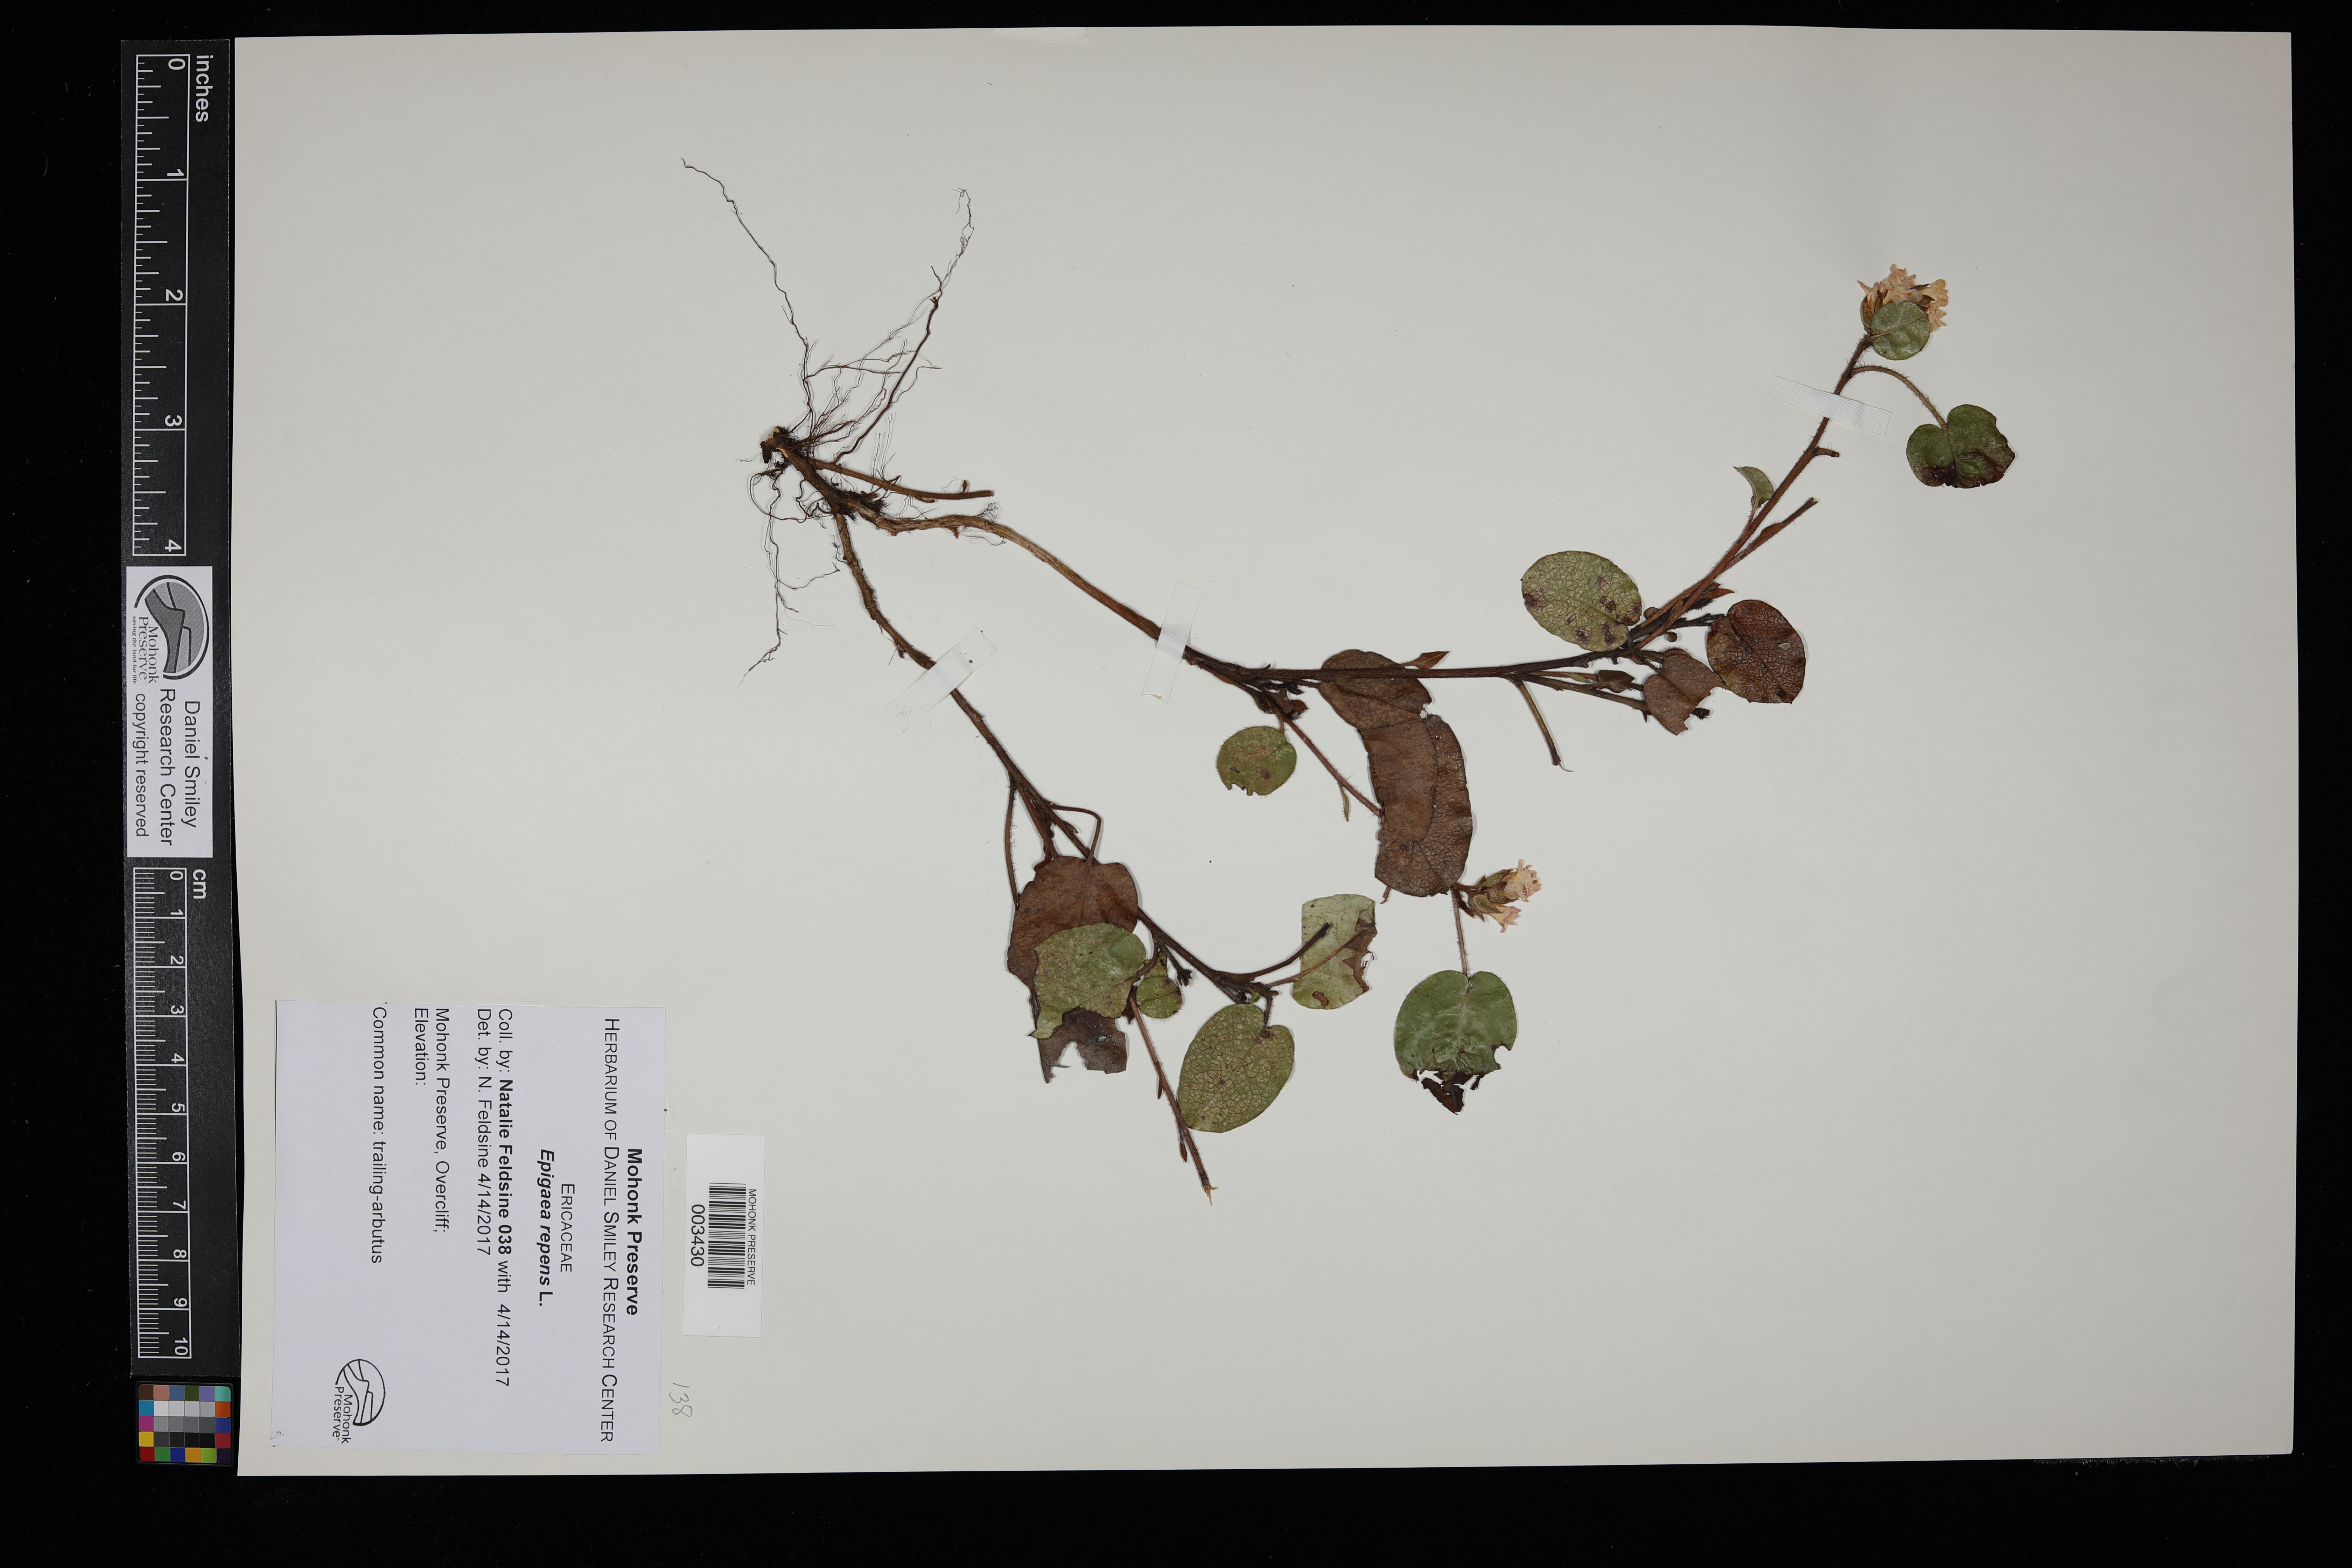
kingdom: Plantae
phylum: Tracheophyta
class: Magnoliopsida
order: Ericales
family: Ericaceae
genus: Epigaea
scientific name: Epigaea repens
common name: Gravelroot
